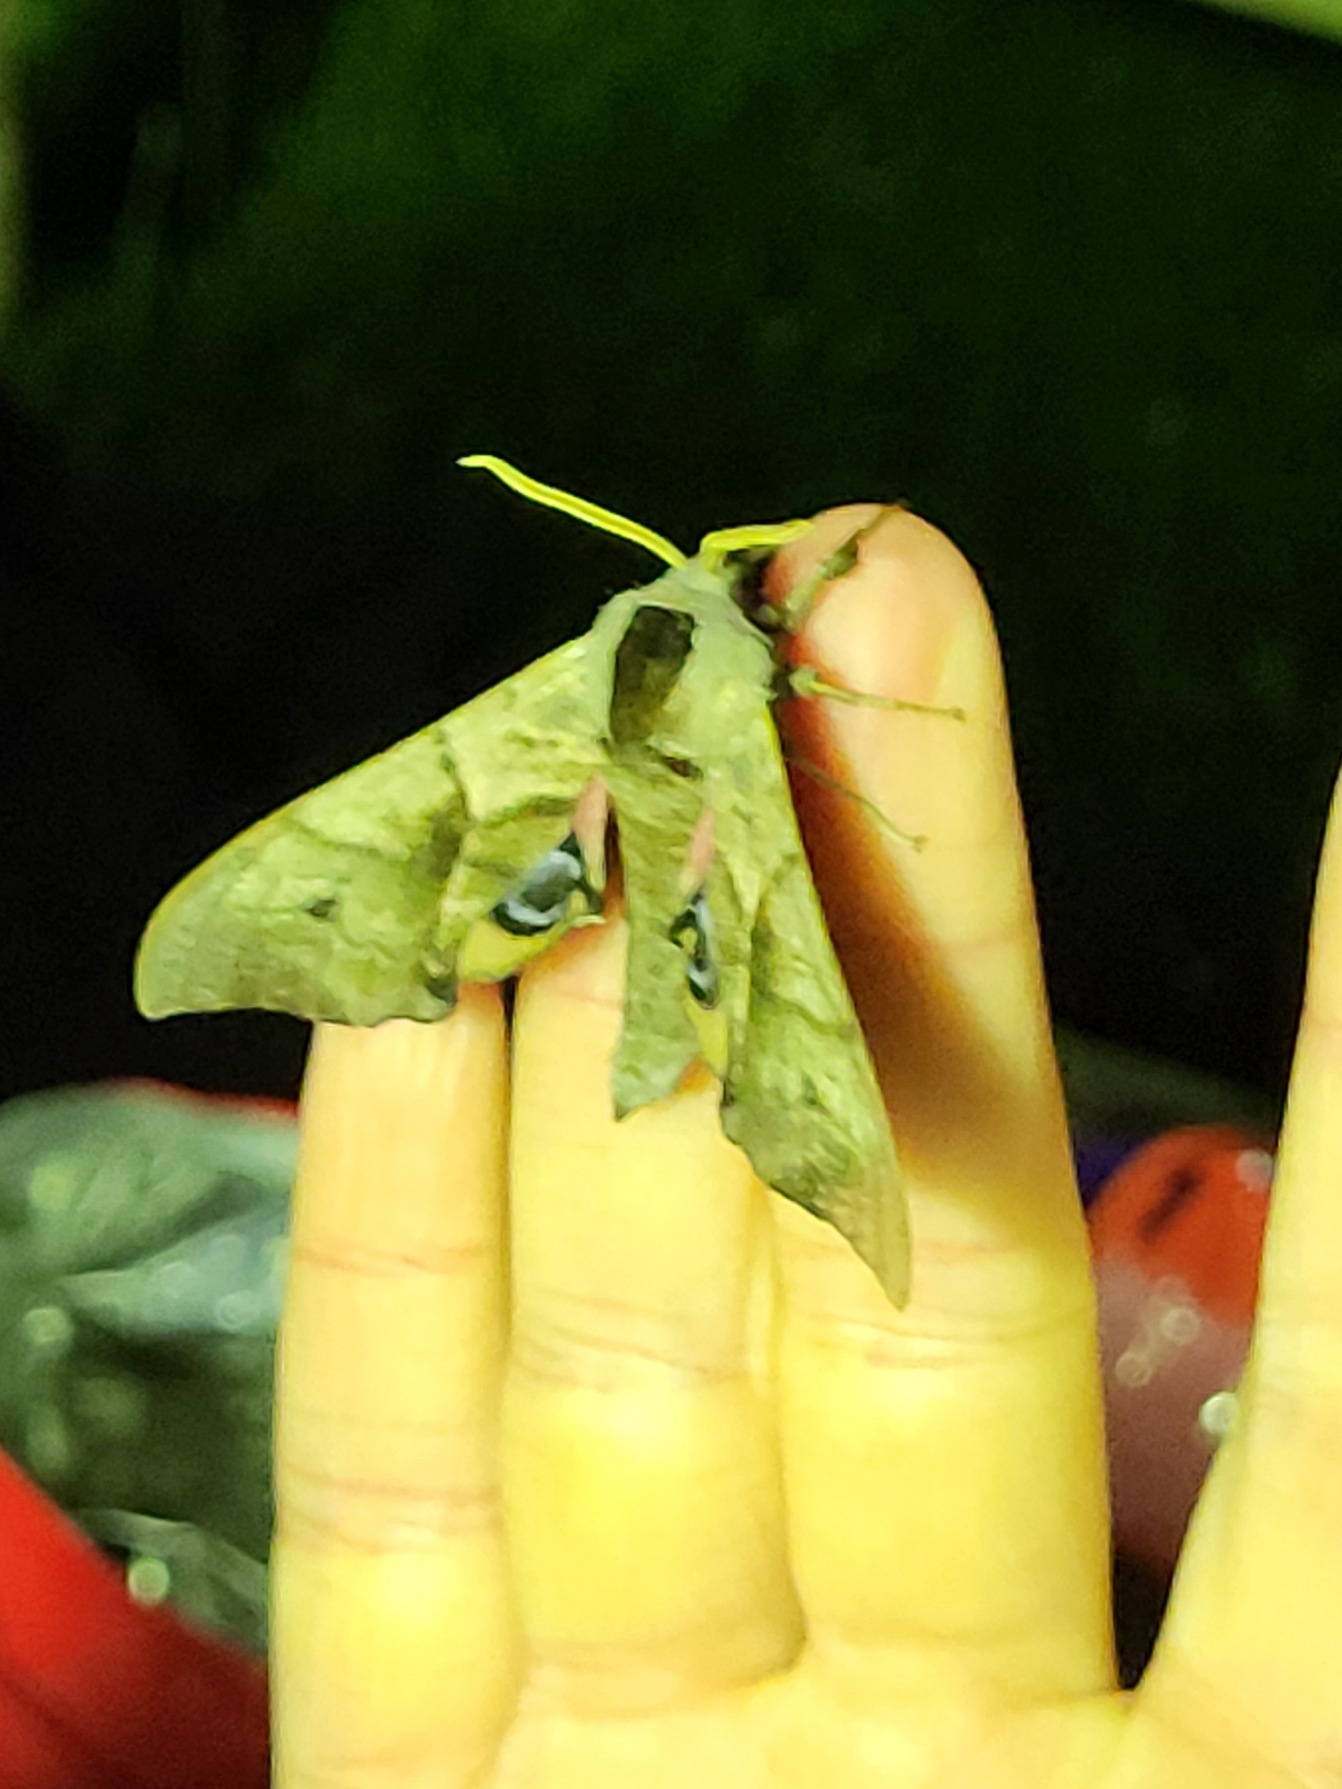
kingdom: Animalia
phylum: Arthropoda
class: Insecta
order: Lepidoptera
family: Sphingidae
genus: Smerinthus
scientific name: Smerinthus ocellata
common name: Aftenpåfugleøje
